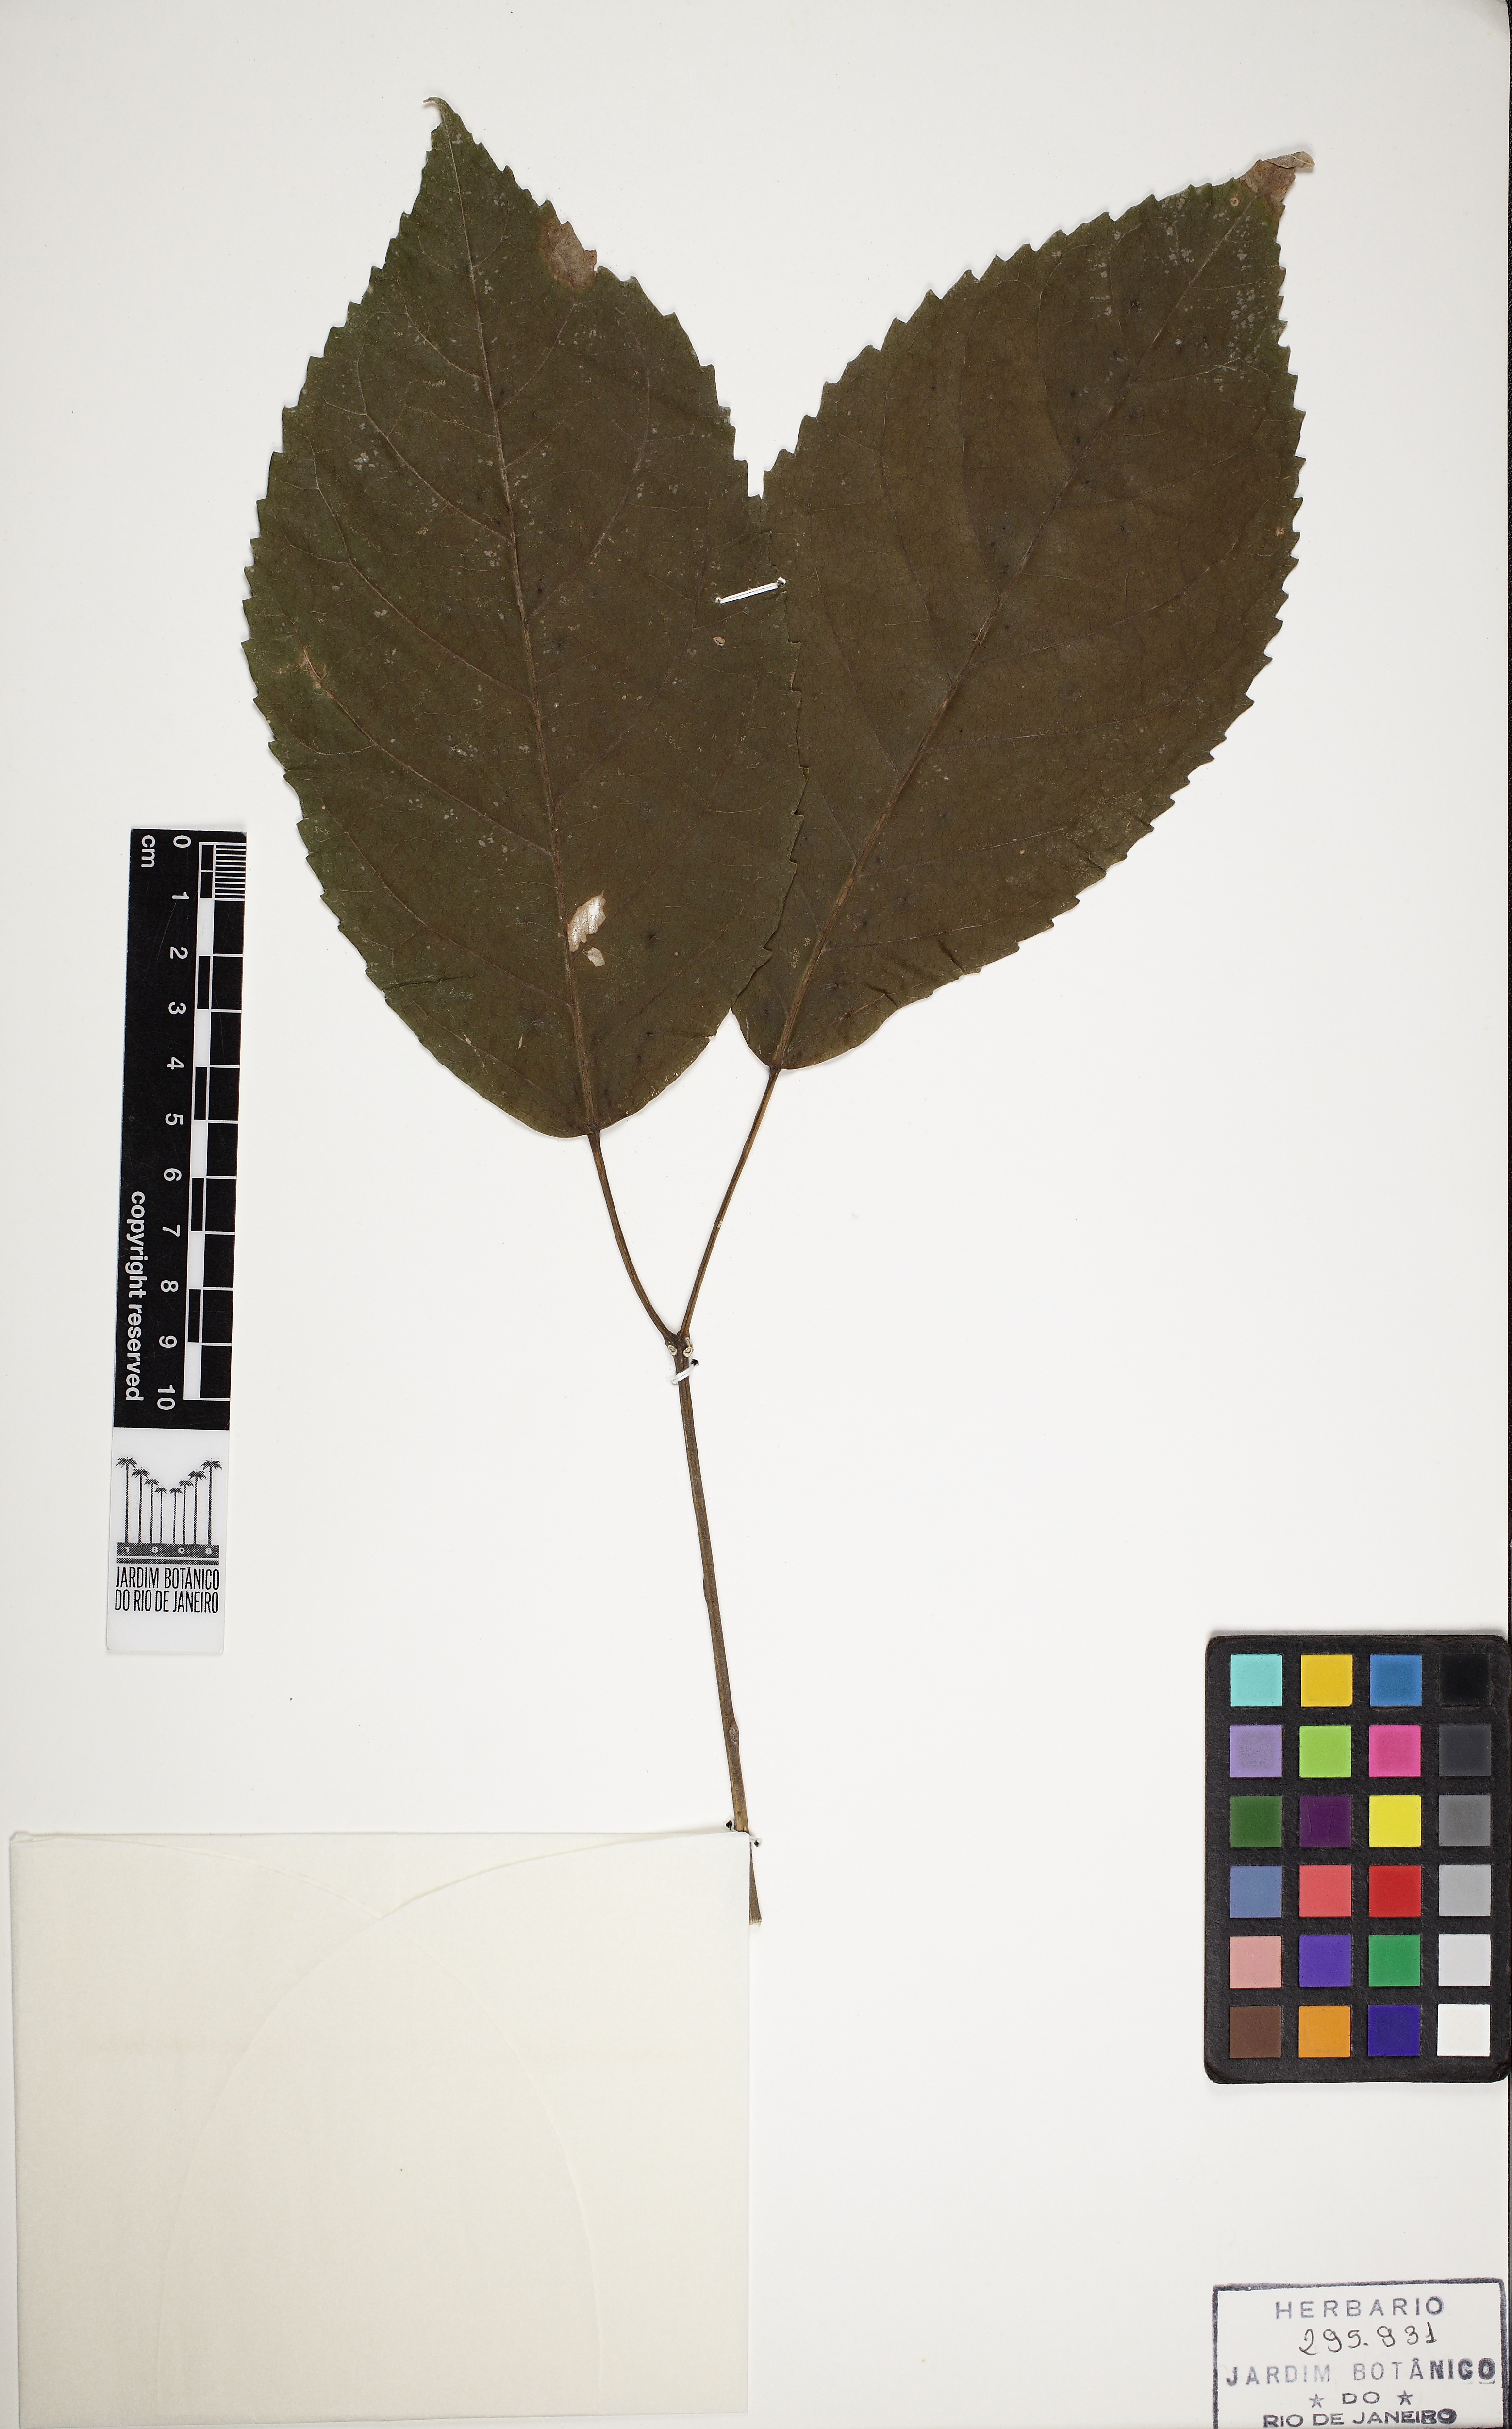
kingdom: Plantae
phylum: Tracheophyta
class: Magnoliopsida
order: Lamiales
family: Bignoniaceae
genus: Handroanthus
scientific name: Handroanthus impetiginosum
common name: Pink trumpet tree
